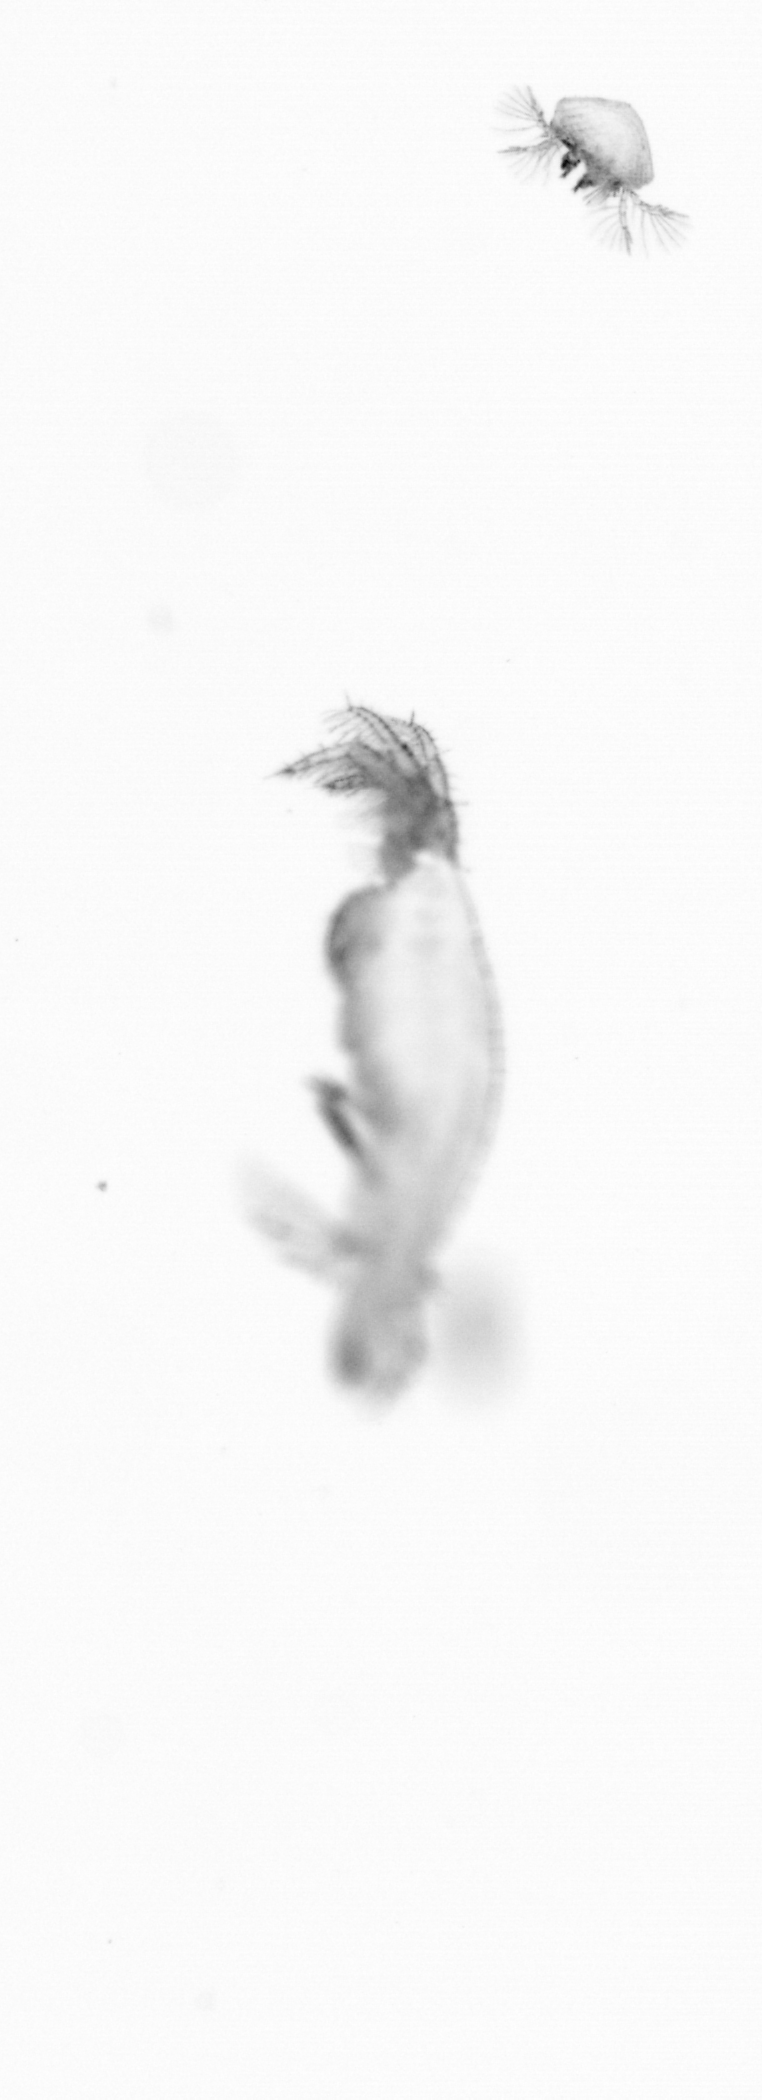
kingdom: Animalia
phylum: Annelida
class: Polychaeta
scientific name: Polychaeta
